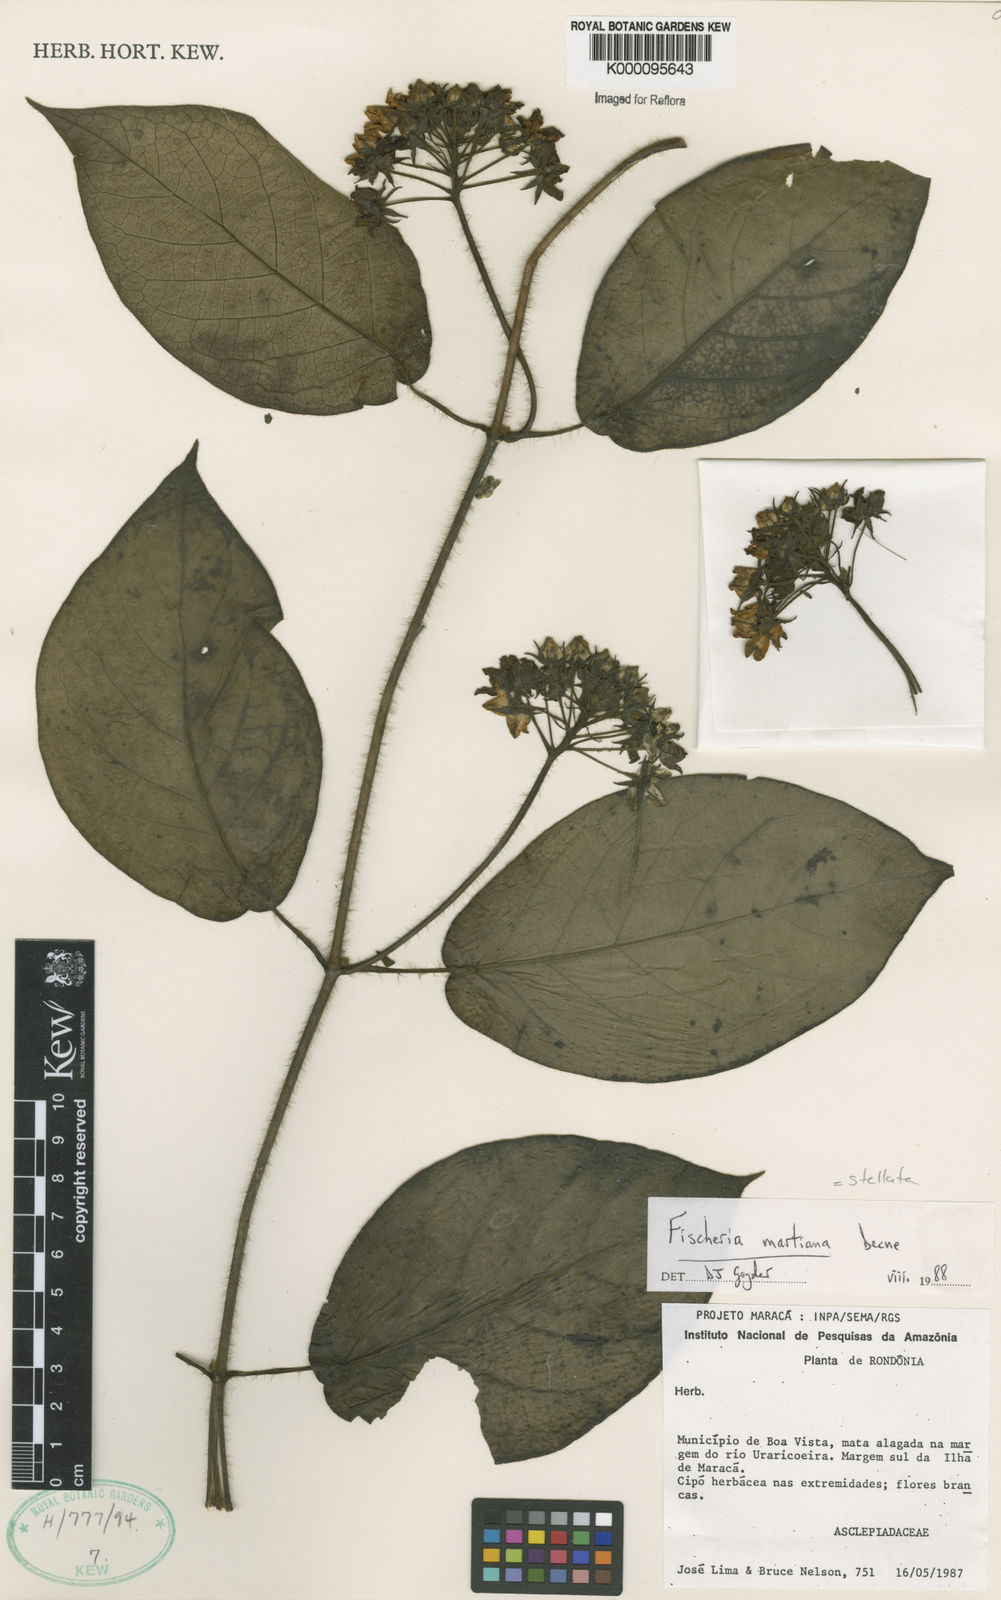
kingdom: Plantae
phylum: Tracheophyta
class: Magnoliopsida
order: Gentianales
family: Apocynaceae
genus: Fischeria
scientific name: Fischeria stellata
